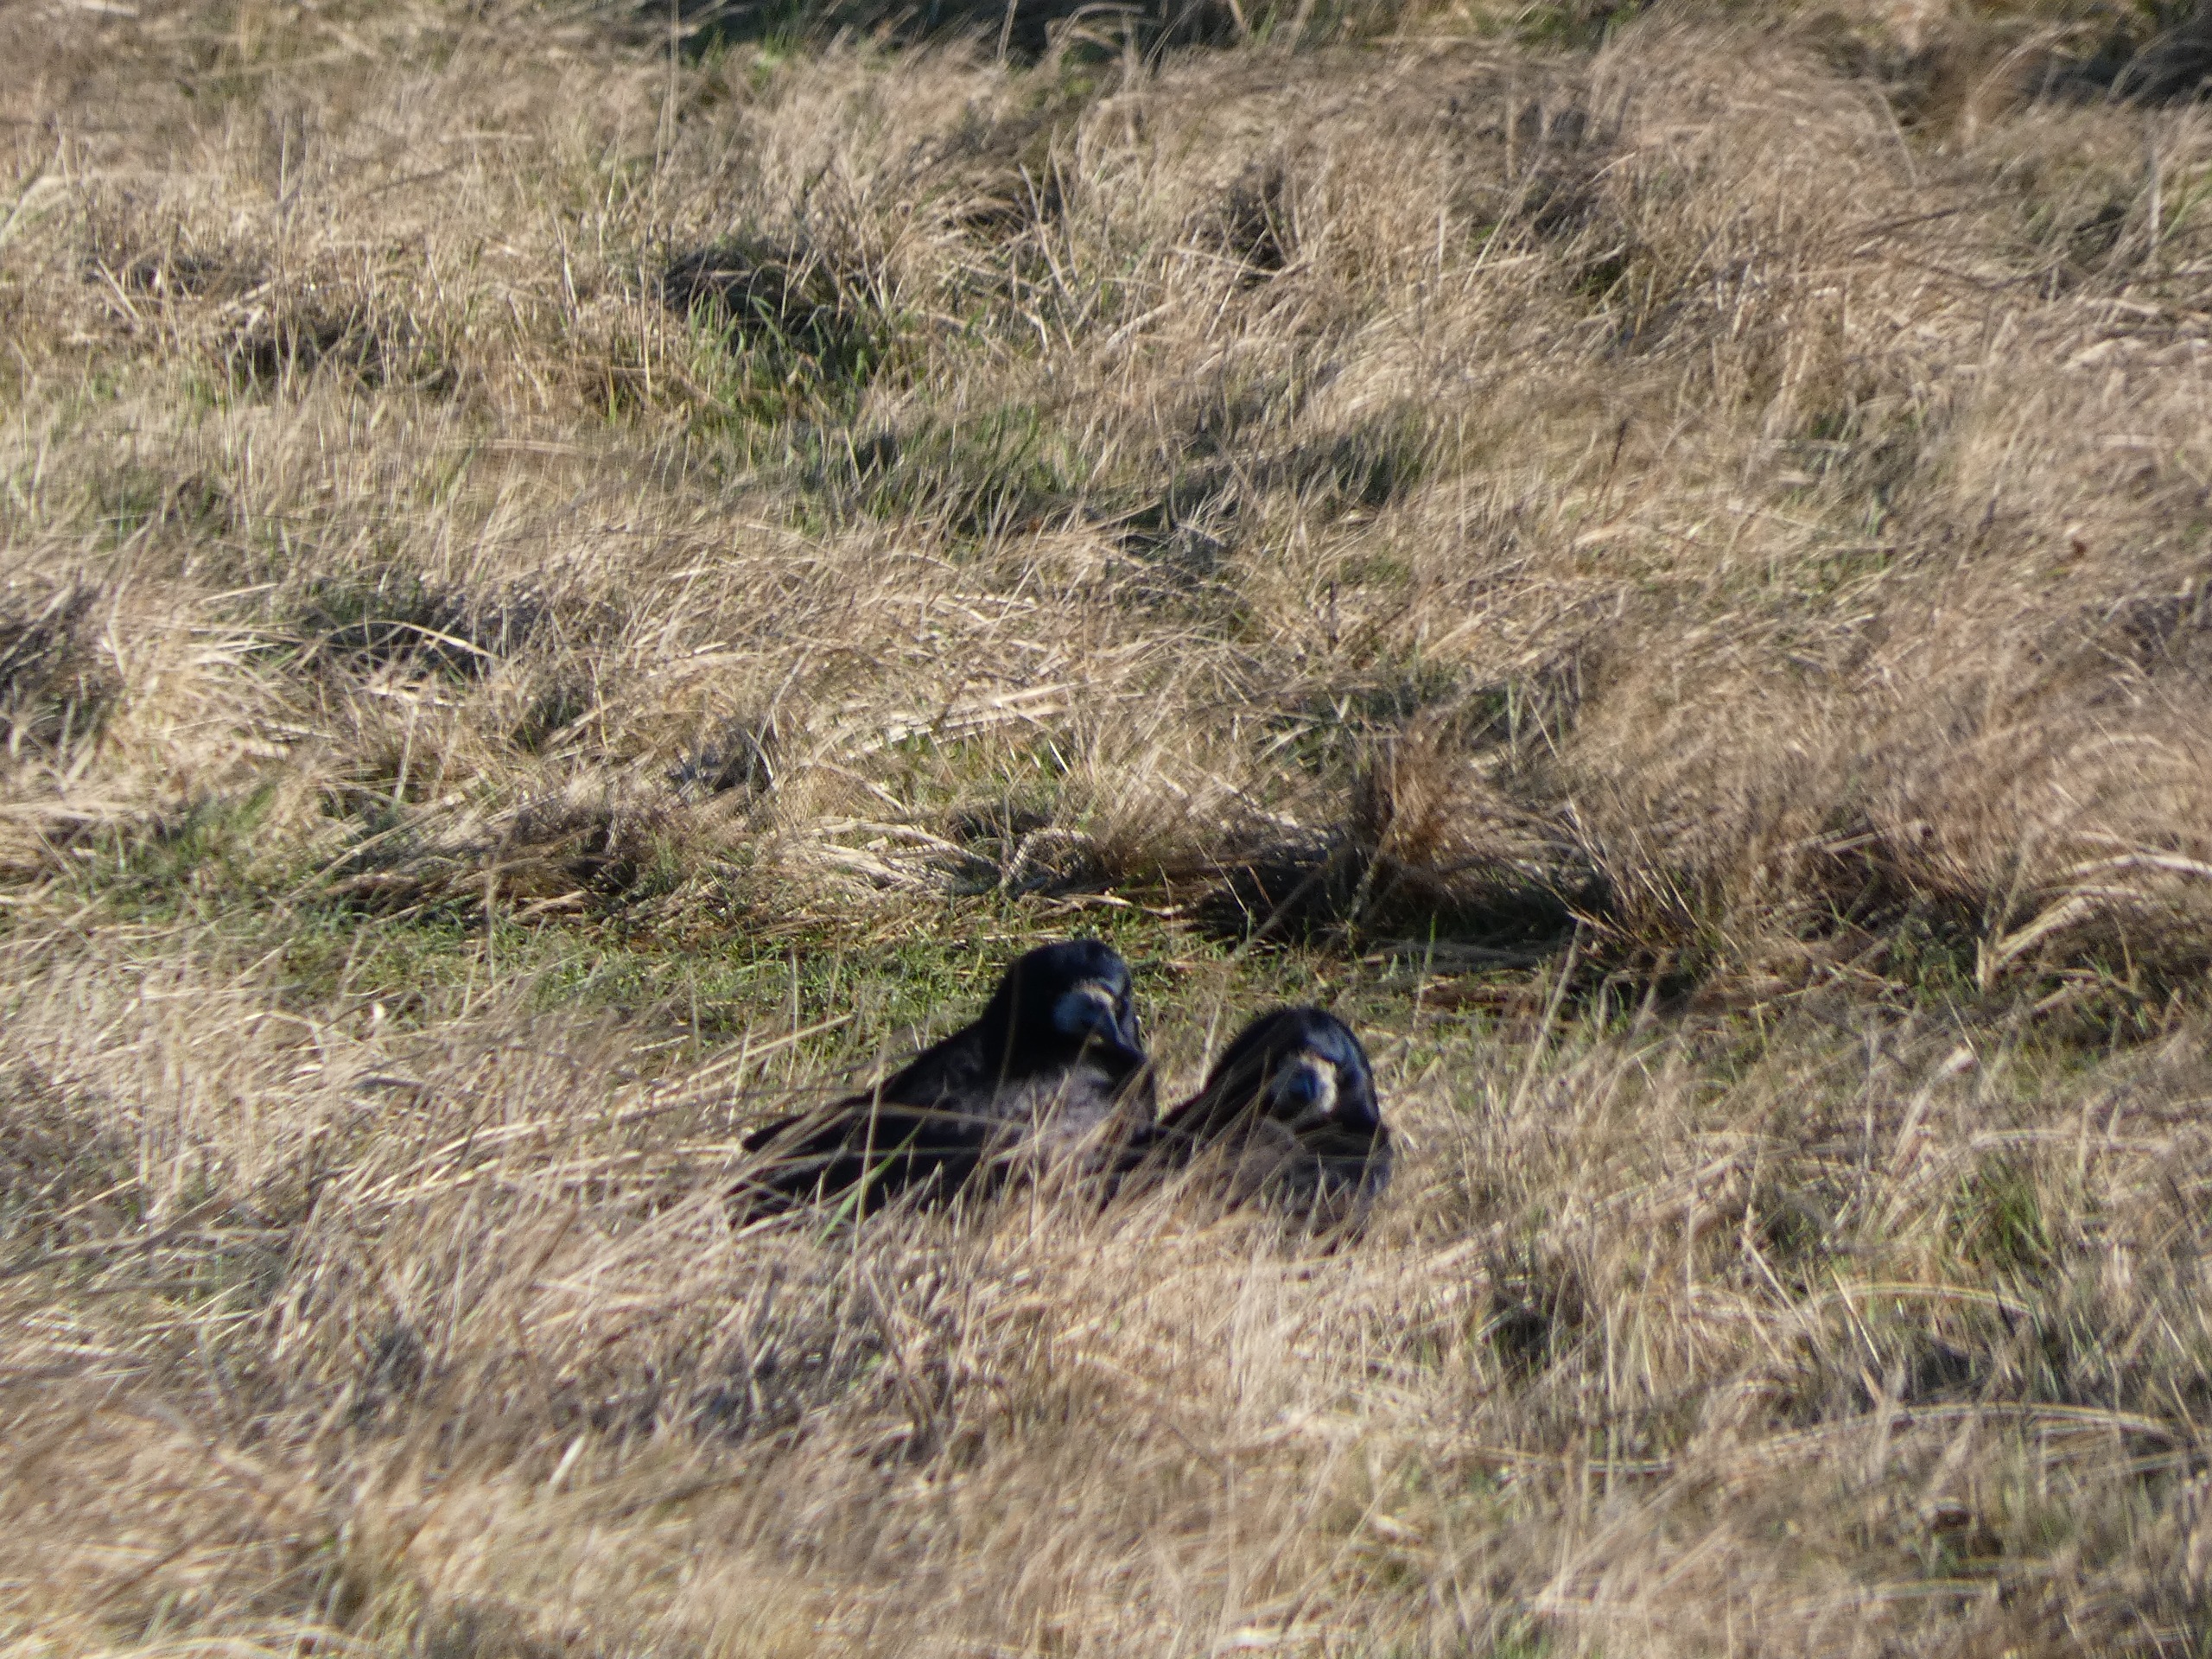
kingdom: Animalia
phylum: Chordata
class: Aves
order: Passeriformes
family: Corvidae
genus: Corvus
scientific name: Corvus frugilegus
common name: Råge
